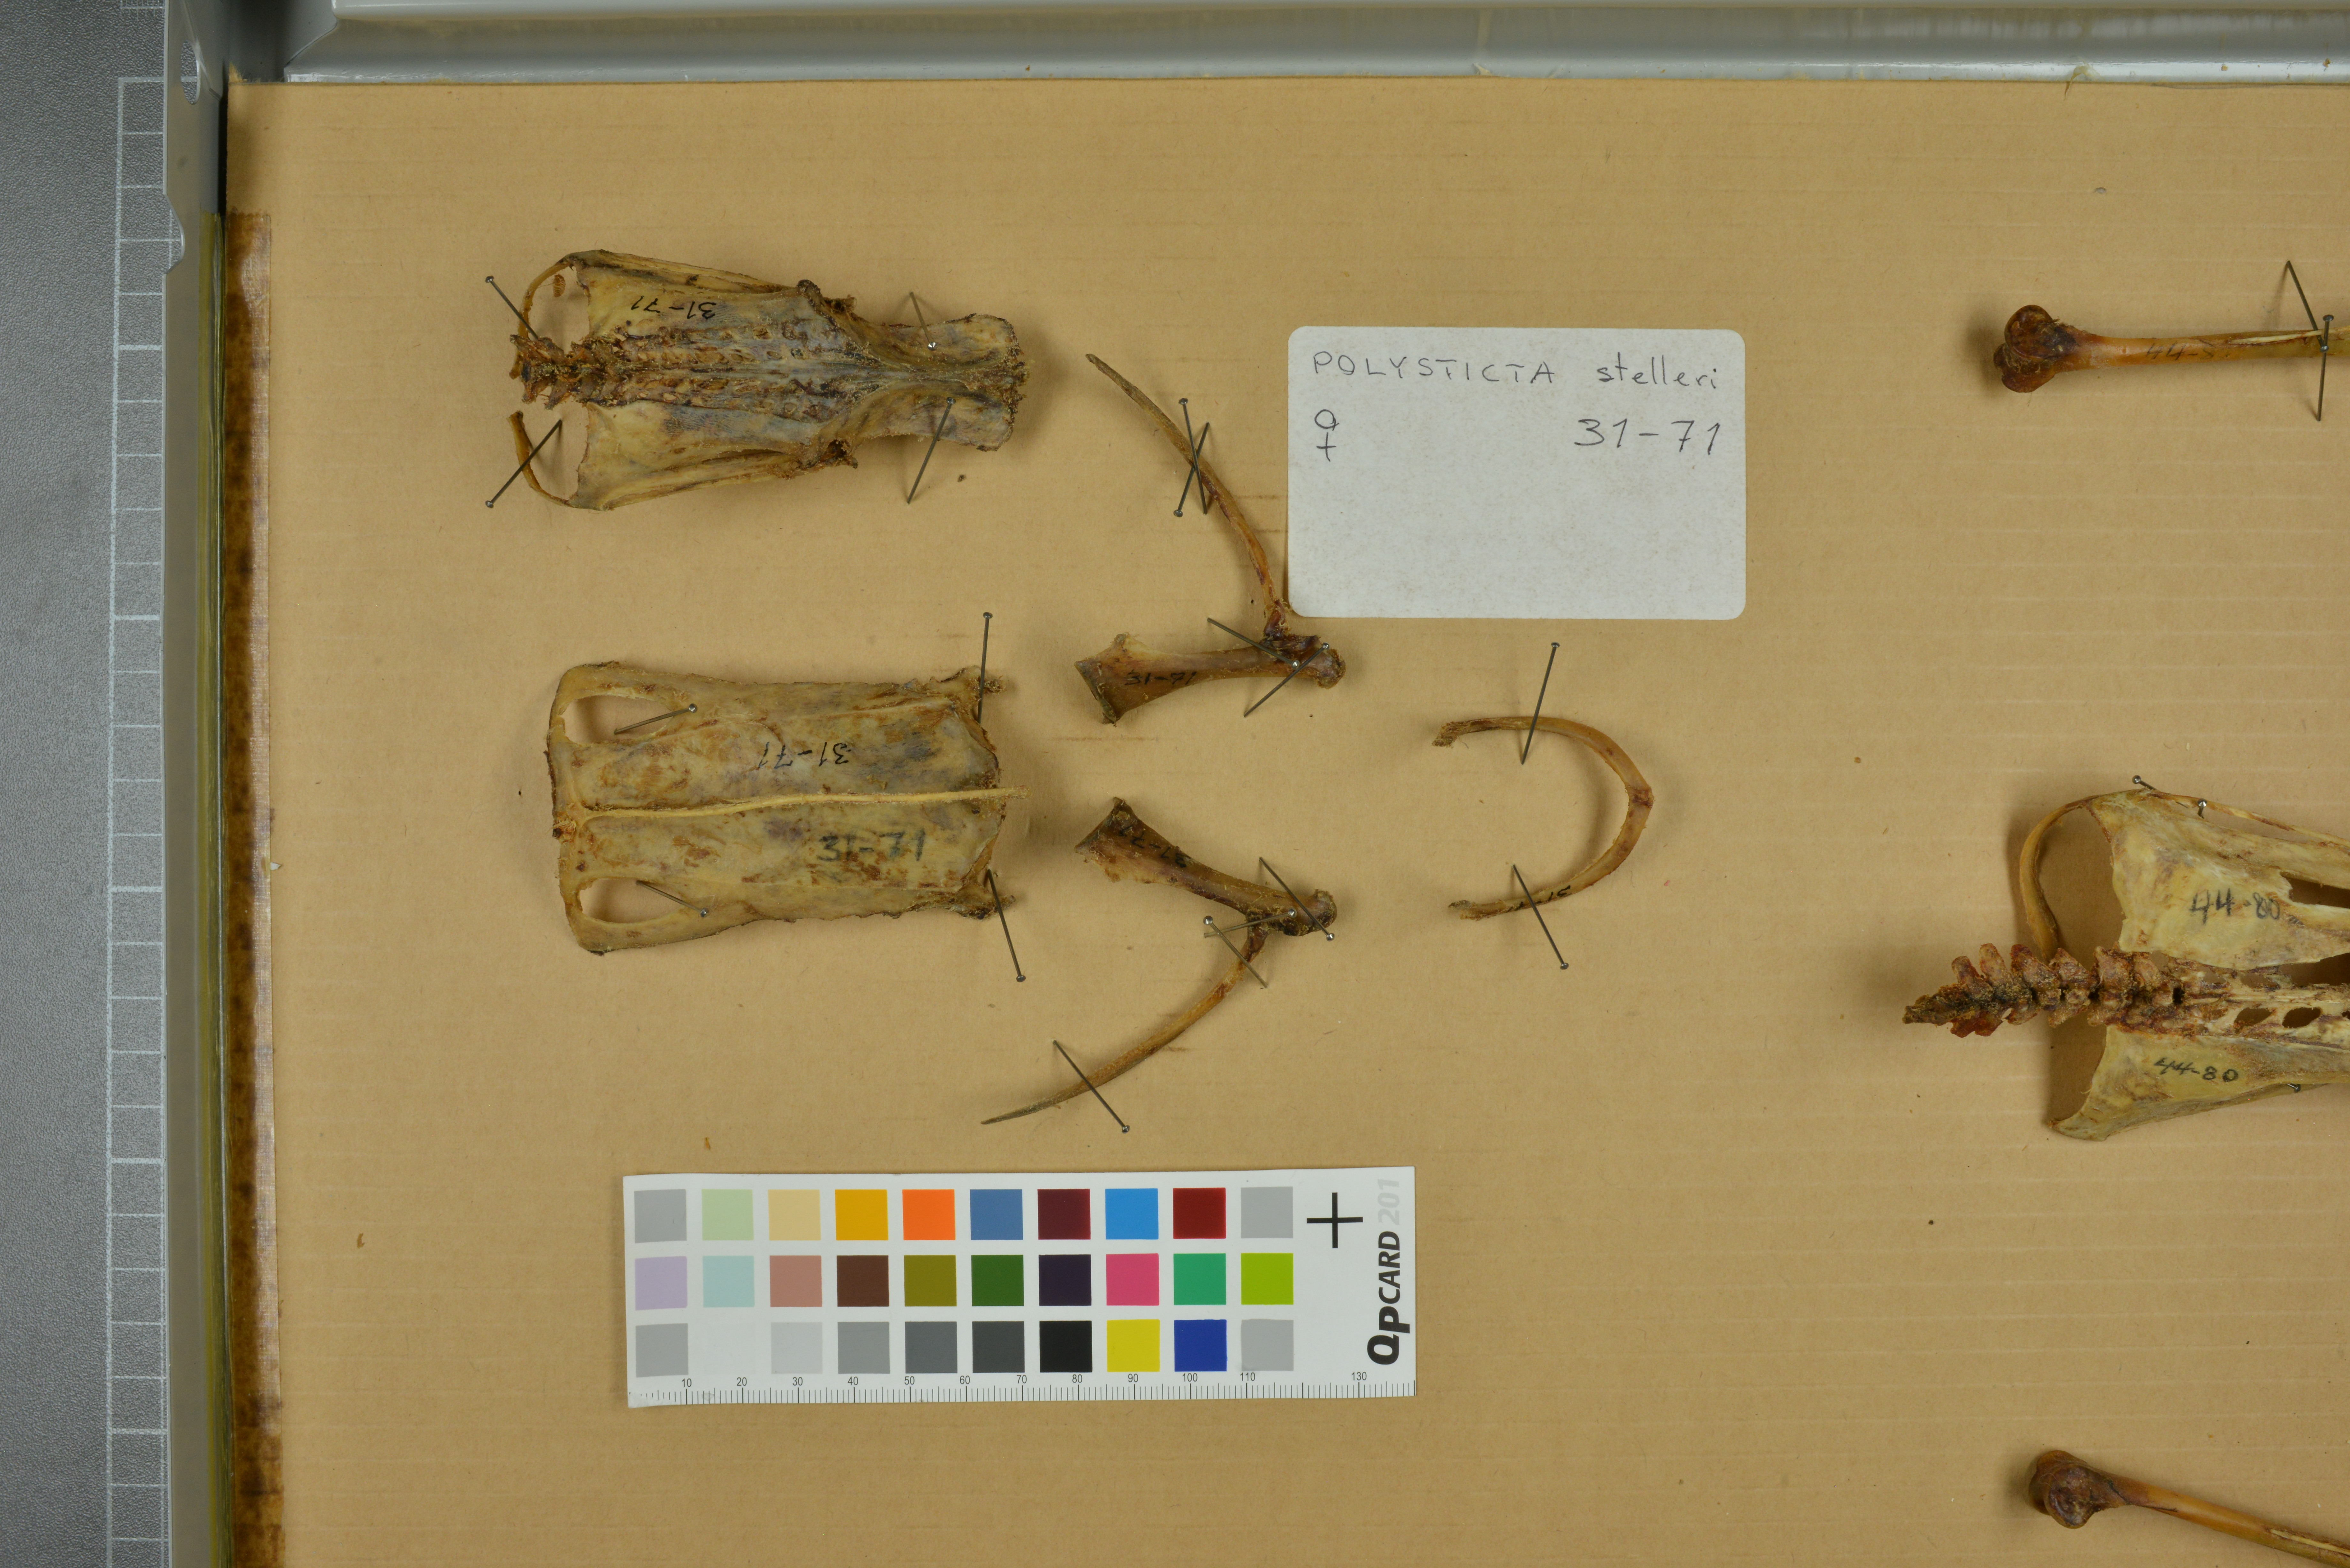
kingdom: Animalia
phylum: Chordata
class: Aves
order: Anseriformes
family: Anatidae
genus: Polysticta
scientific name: Polysticta stelleri
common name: Steller's eider
